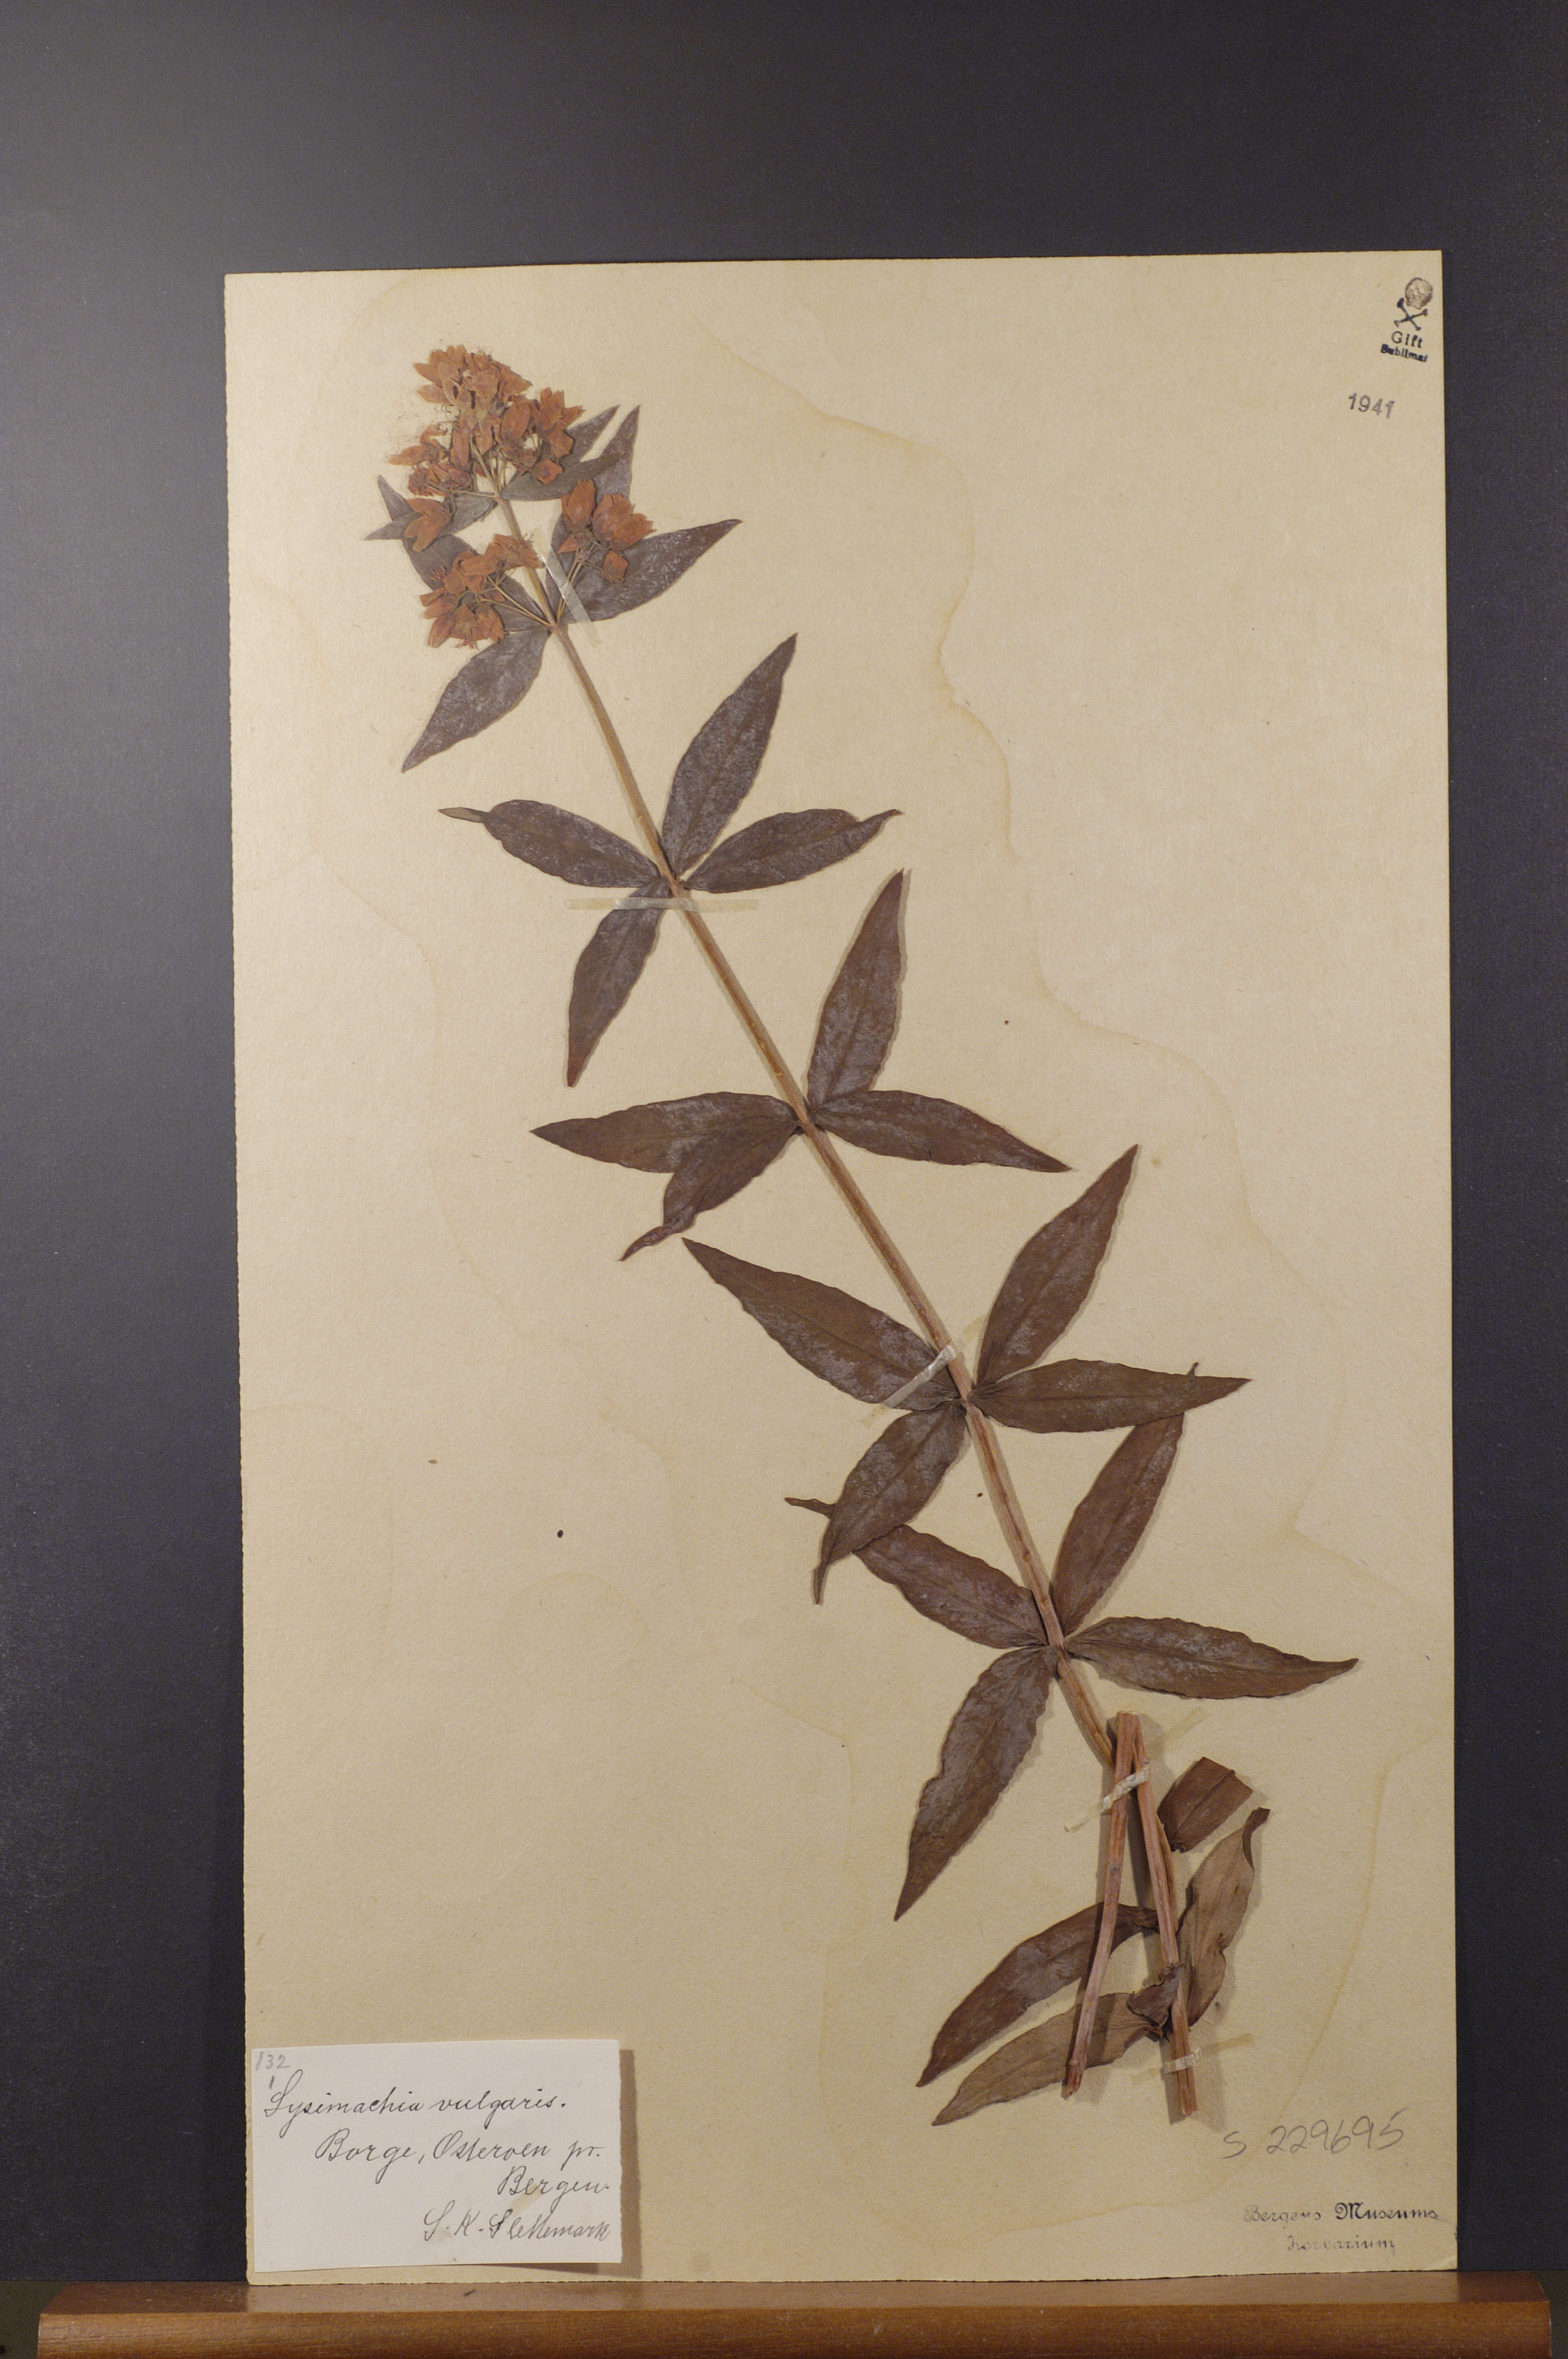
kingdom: Plantae
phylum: Tracheophyta
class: Magnoliopsida
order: Ericales
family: Primulaceae
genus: Lysimachia
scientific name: Lysimachia vulgaris
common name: Yellow loosestrife
